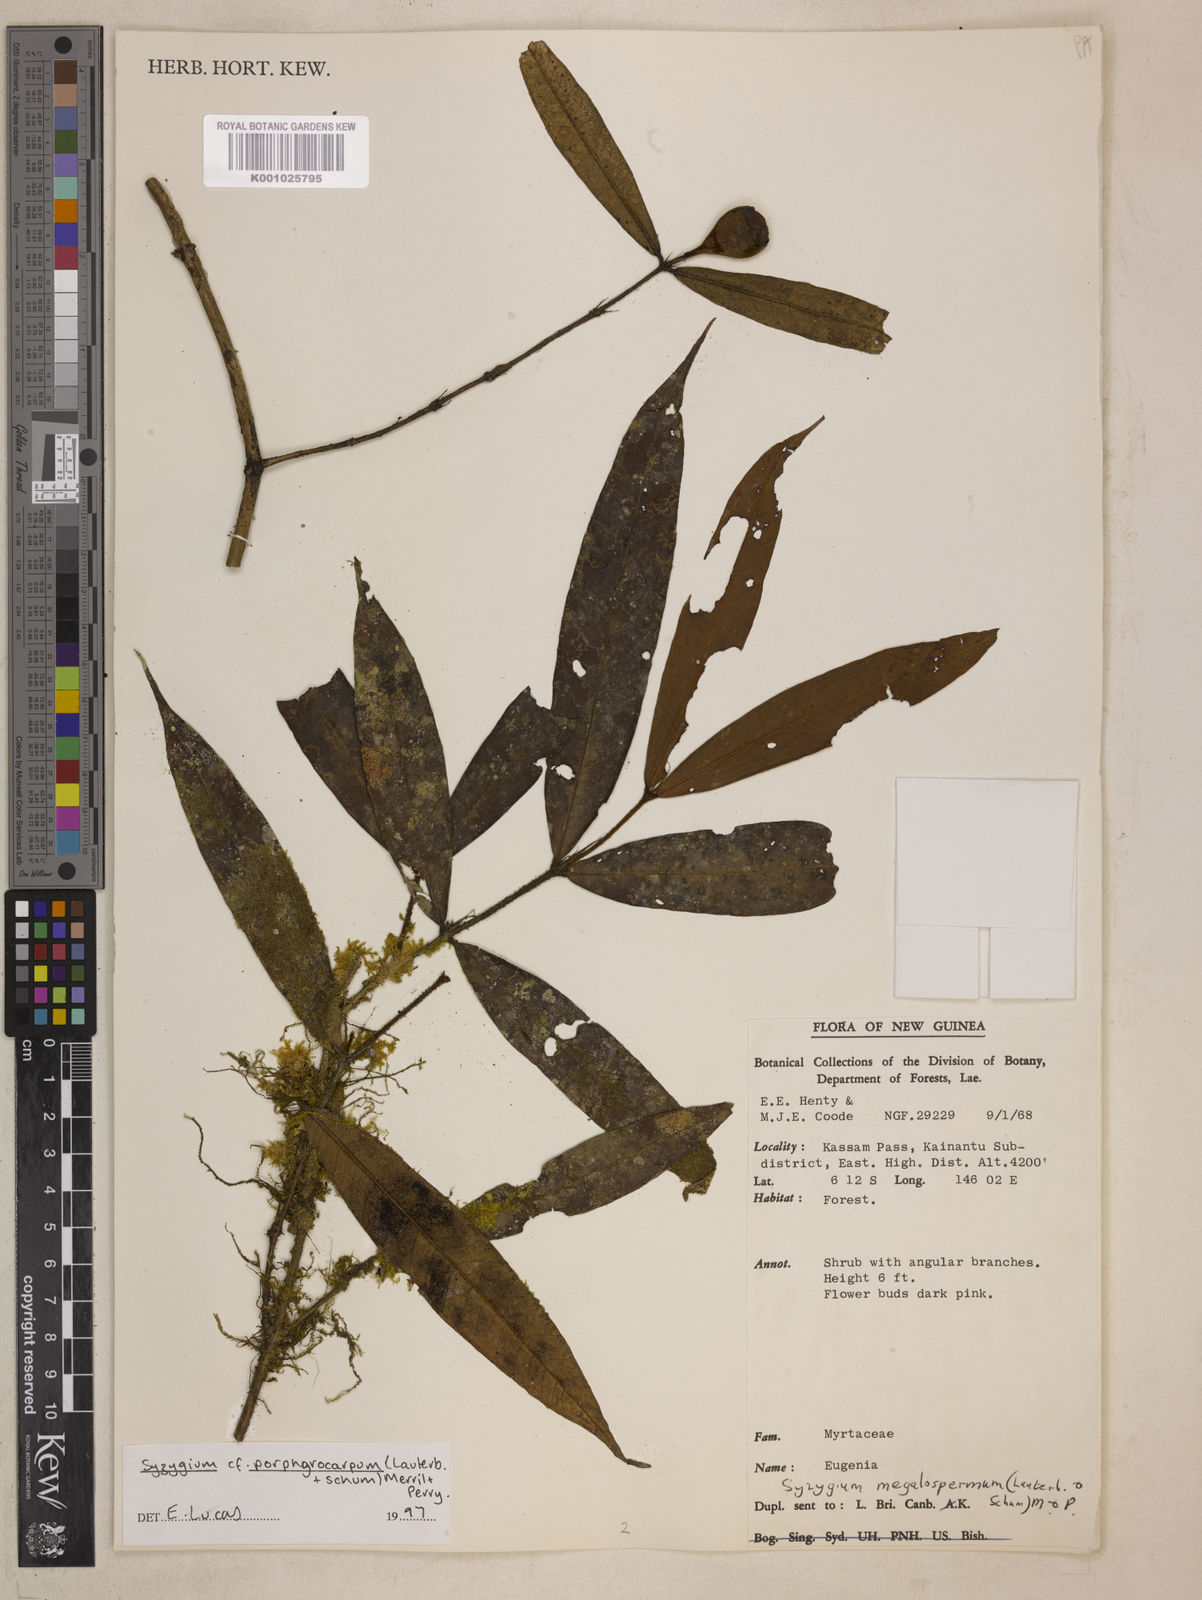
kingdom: Plantae
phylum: Tracheophyta
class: Magnoliopsida
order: Myrtales
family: Myrtaceae
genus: Syzygium
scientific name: Syzygium porphyrocarpum
